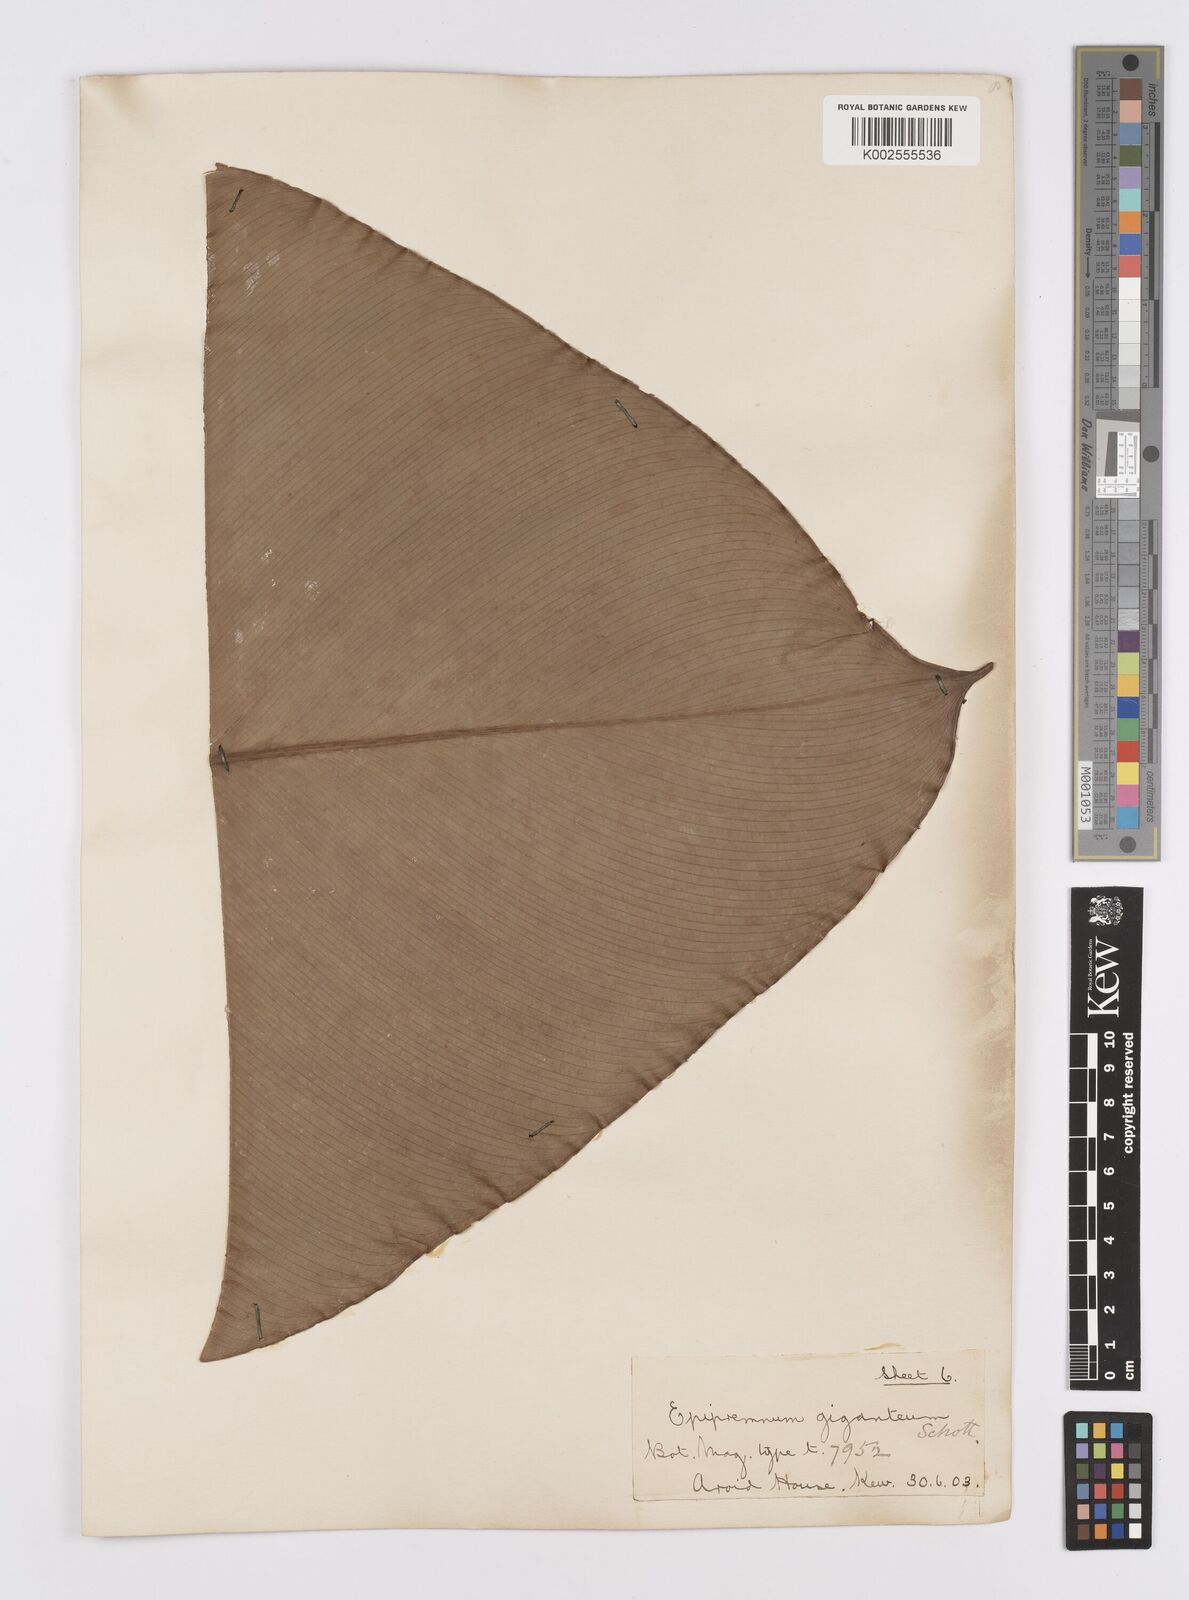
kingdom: Plantae
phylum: Tracheophyta
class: Liliopsida
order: Alismatales
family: Araceae
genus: Epipremnum
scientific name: Epipremnum giganteum
